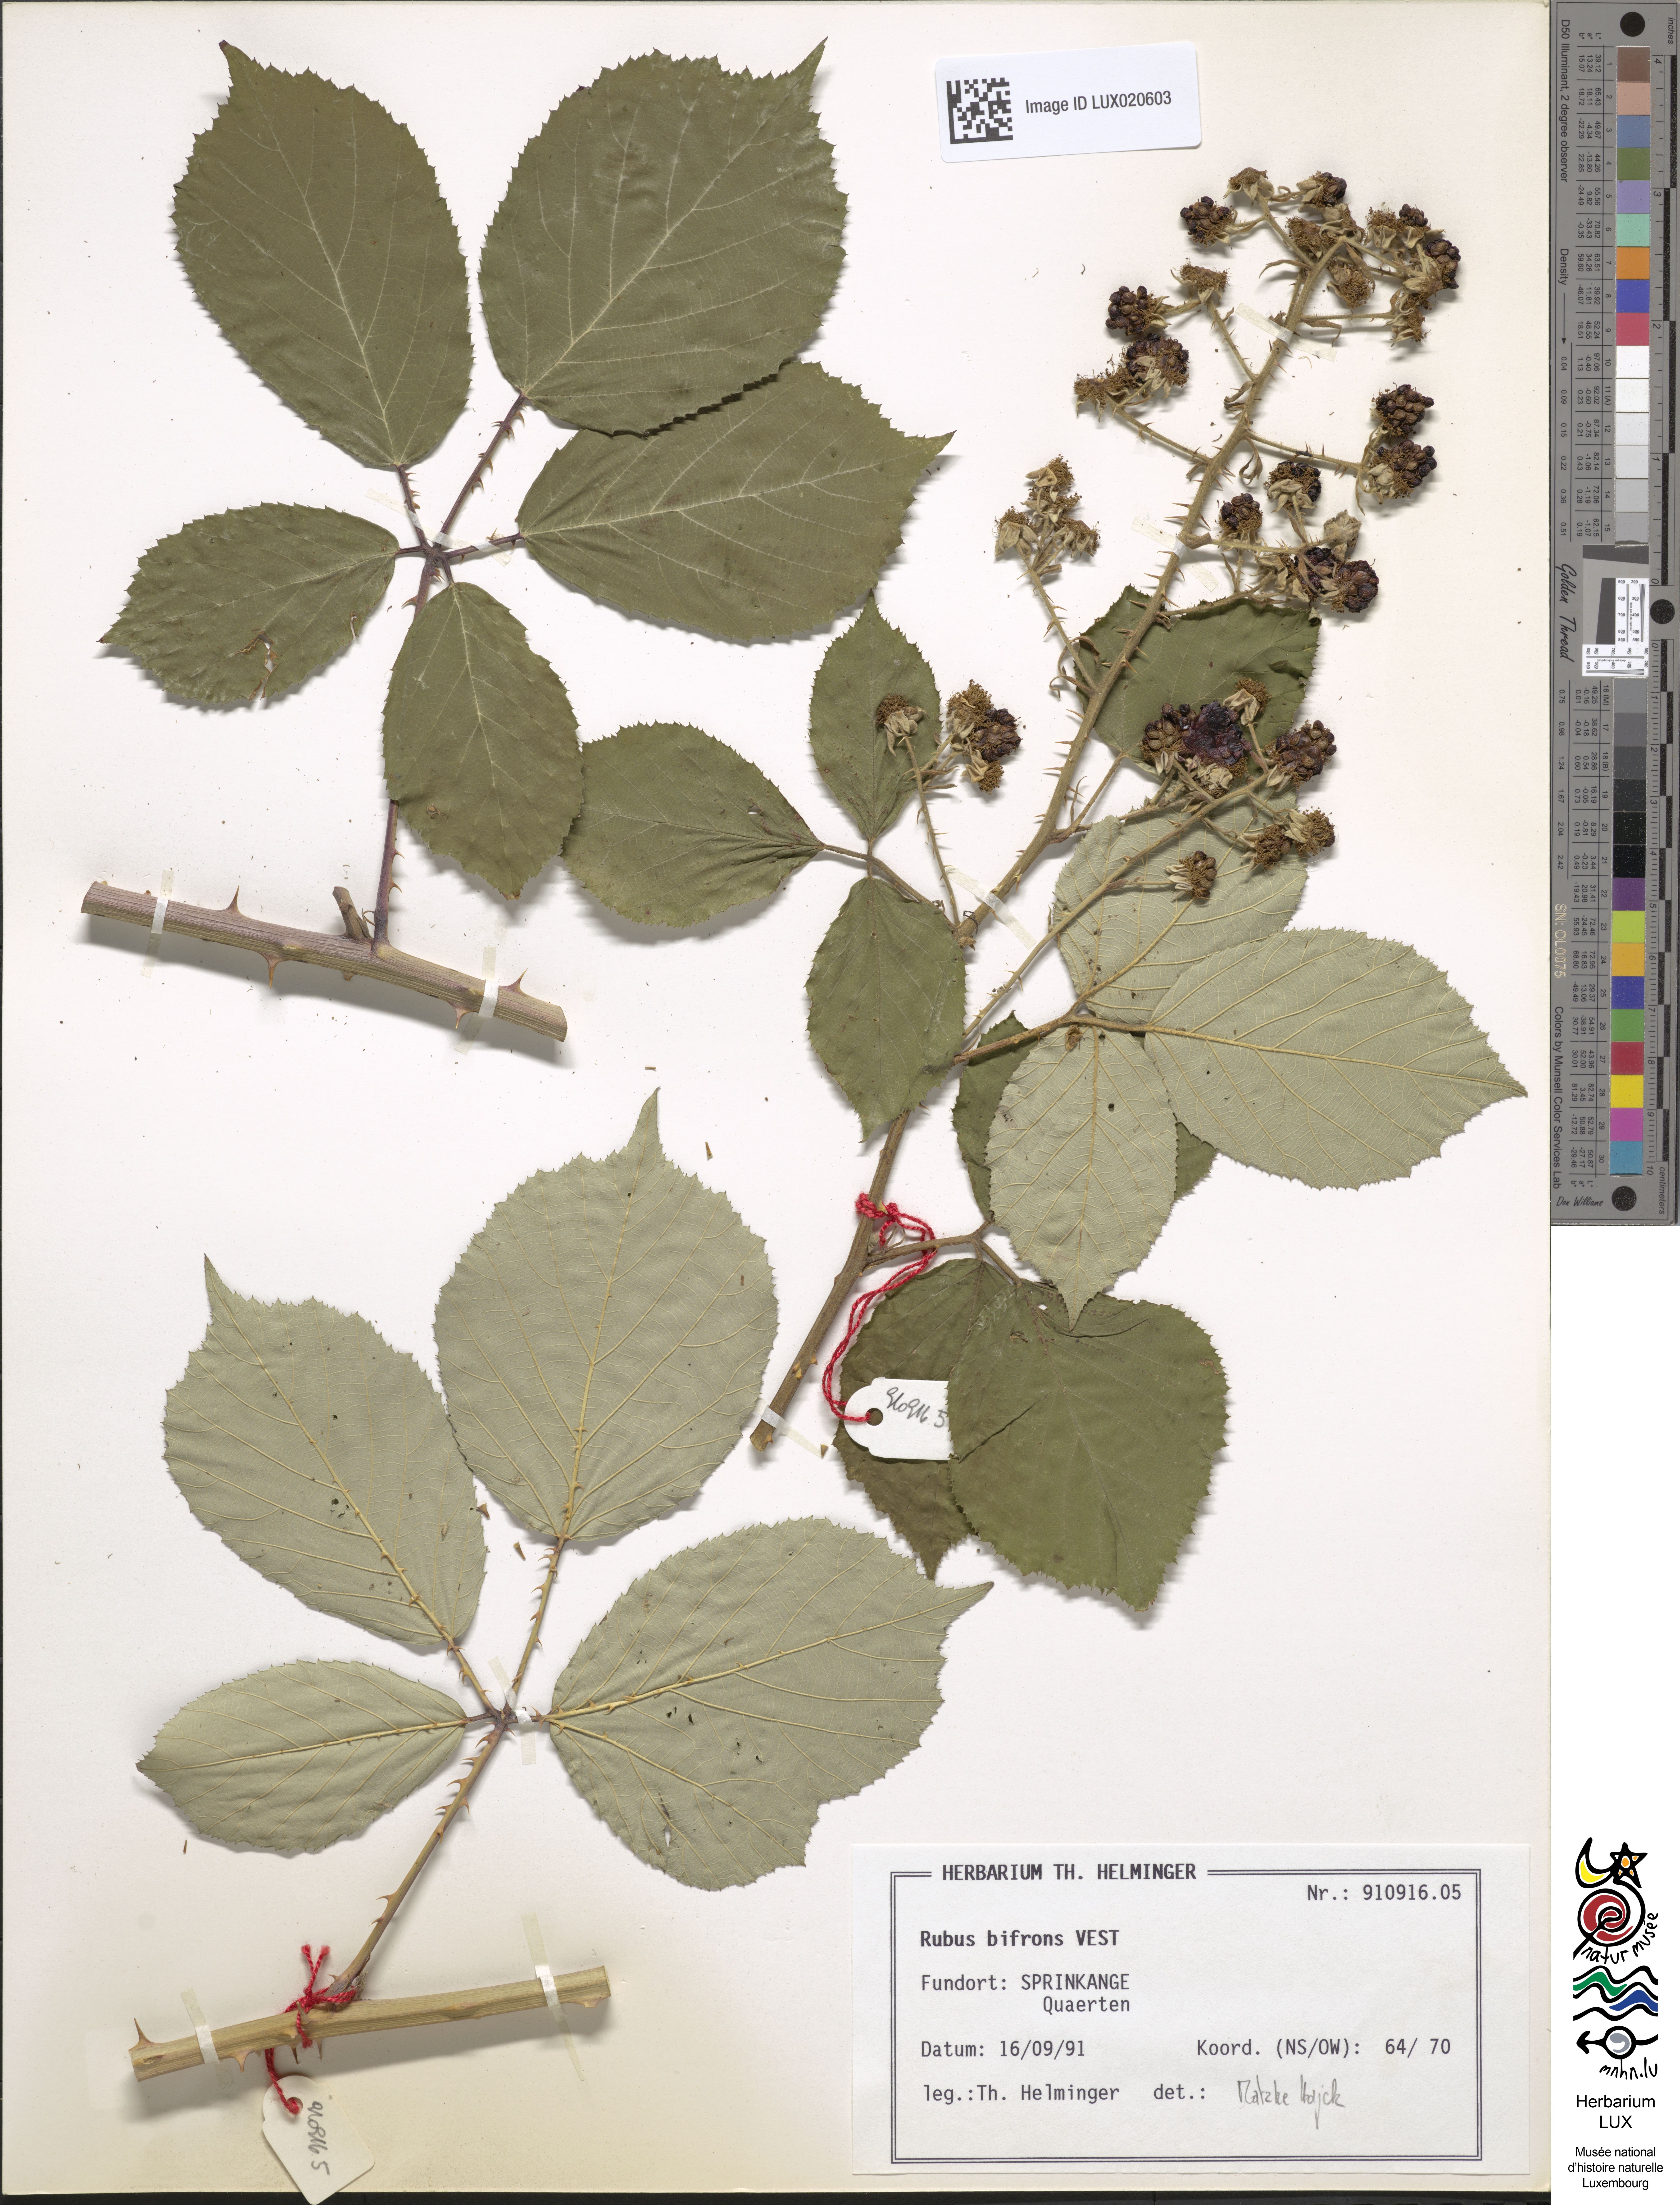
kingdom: Plantae
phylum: Tracheophyta
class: Magnoliopsida
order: Rosales
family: Rosaceae
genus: Rubus
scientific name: Rubus bifrons
